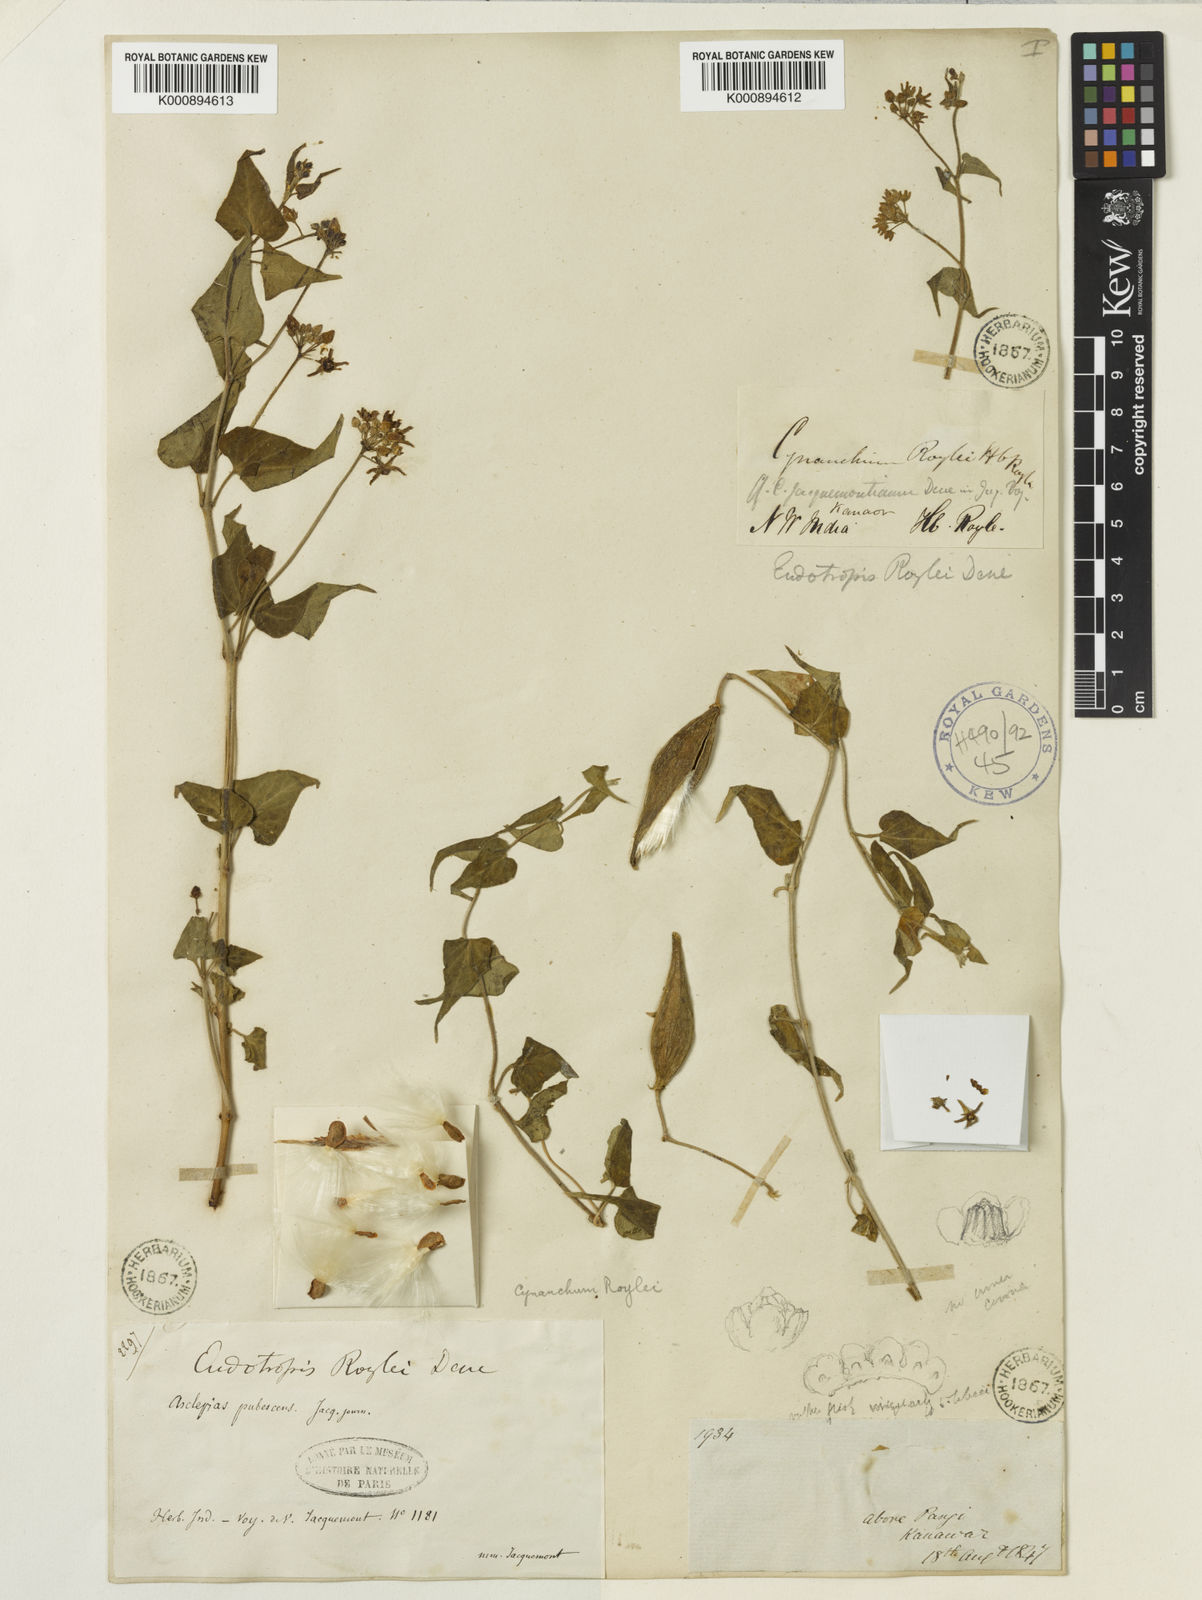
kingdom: Plantae
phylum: Tracheophyta
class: Magnoliopsida
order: Gentianales
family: Apocynaceae
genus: Cynanchum
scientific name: Cynanchum roylei
